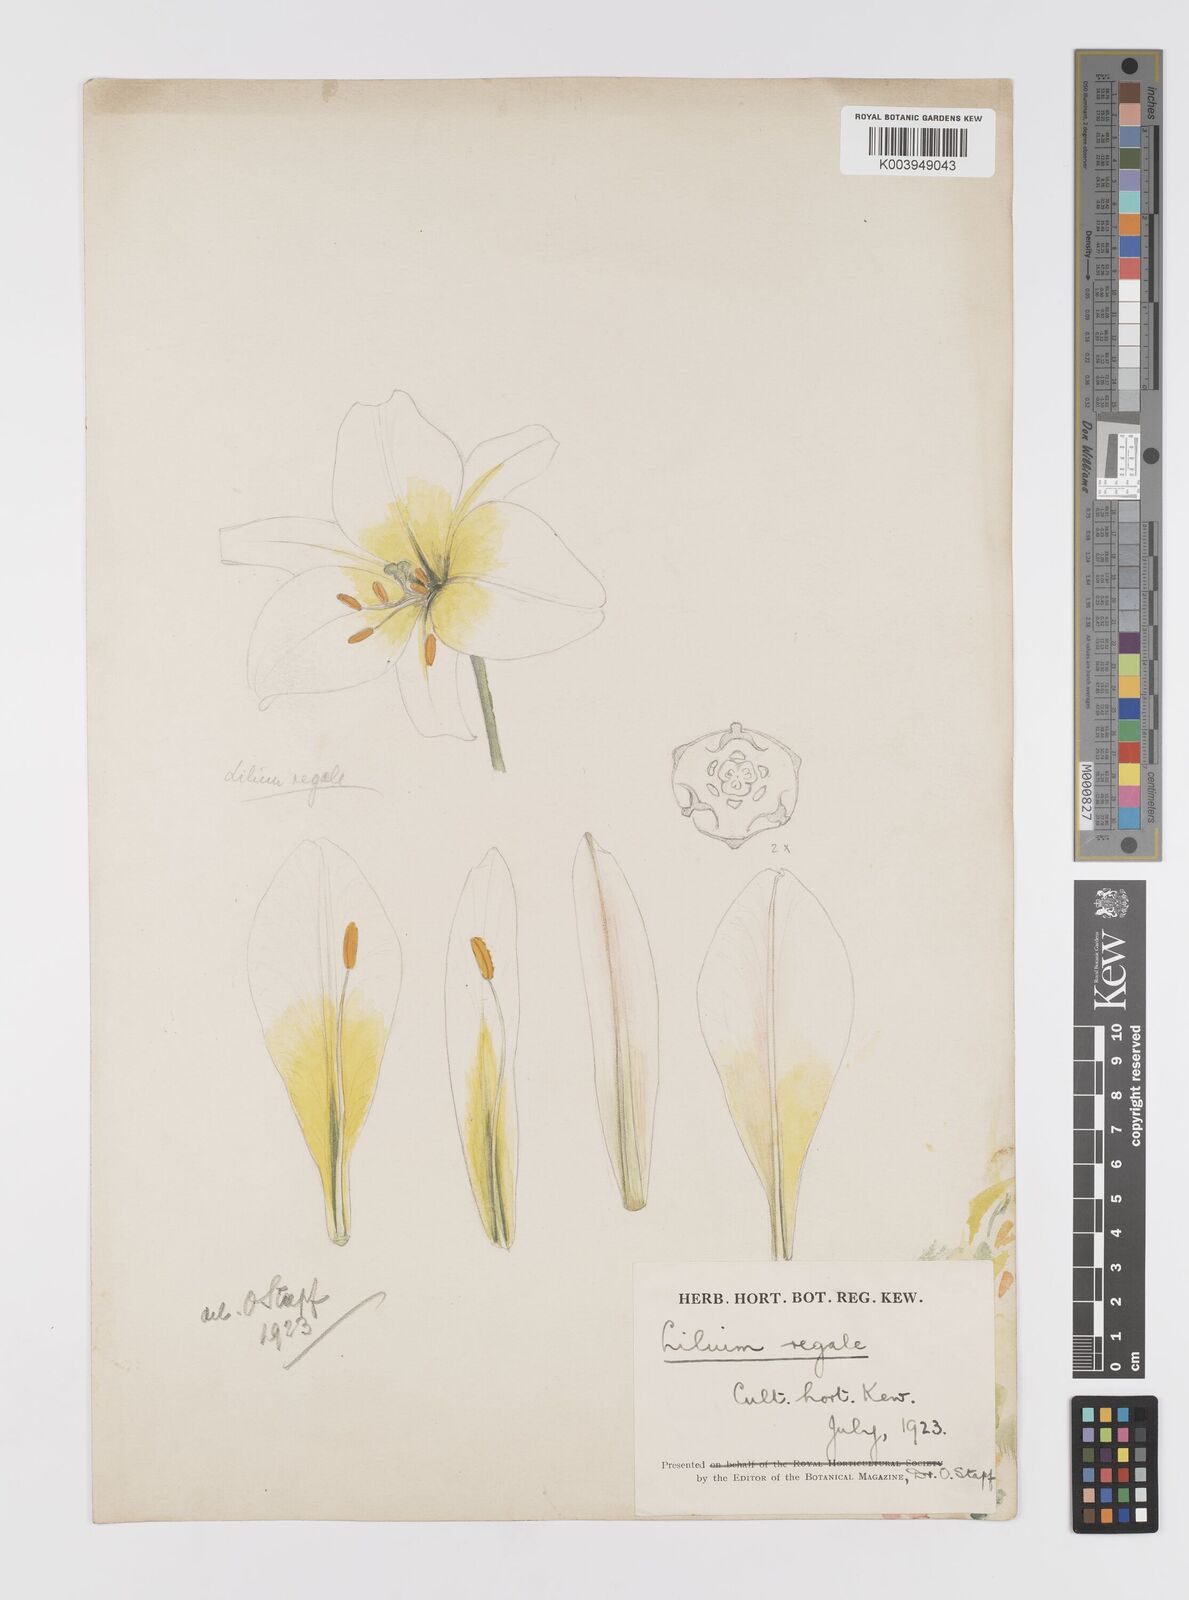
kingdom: Plantae
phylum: Tracheophyta
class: Liliopsida
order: Liliales
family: Liliaceae
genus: Lilium
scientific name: Lilium regale
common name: Regal lily
